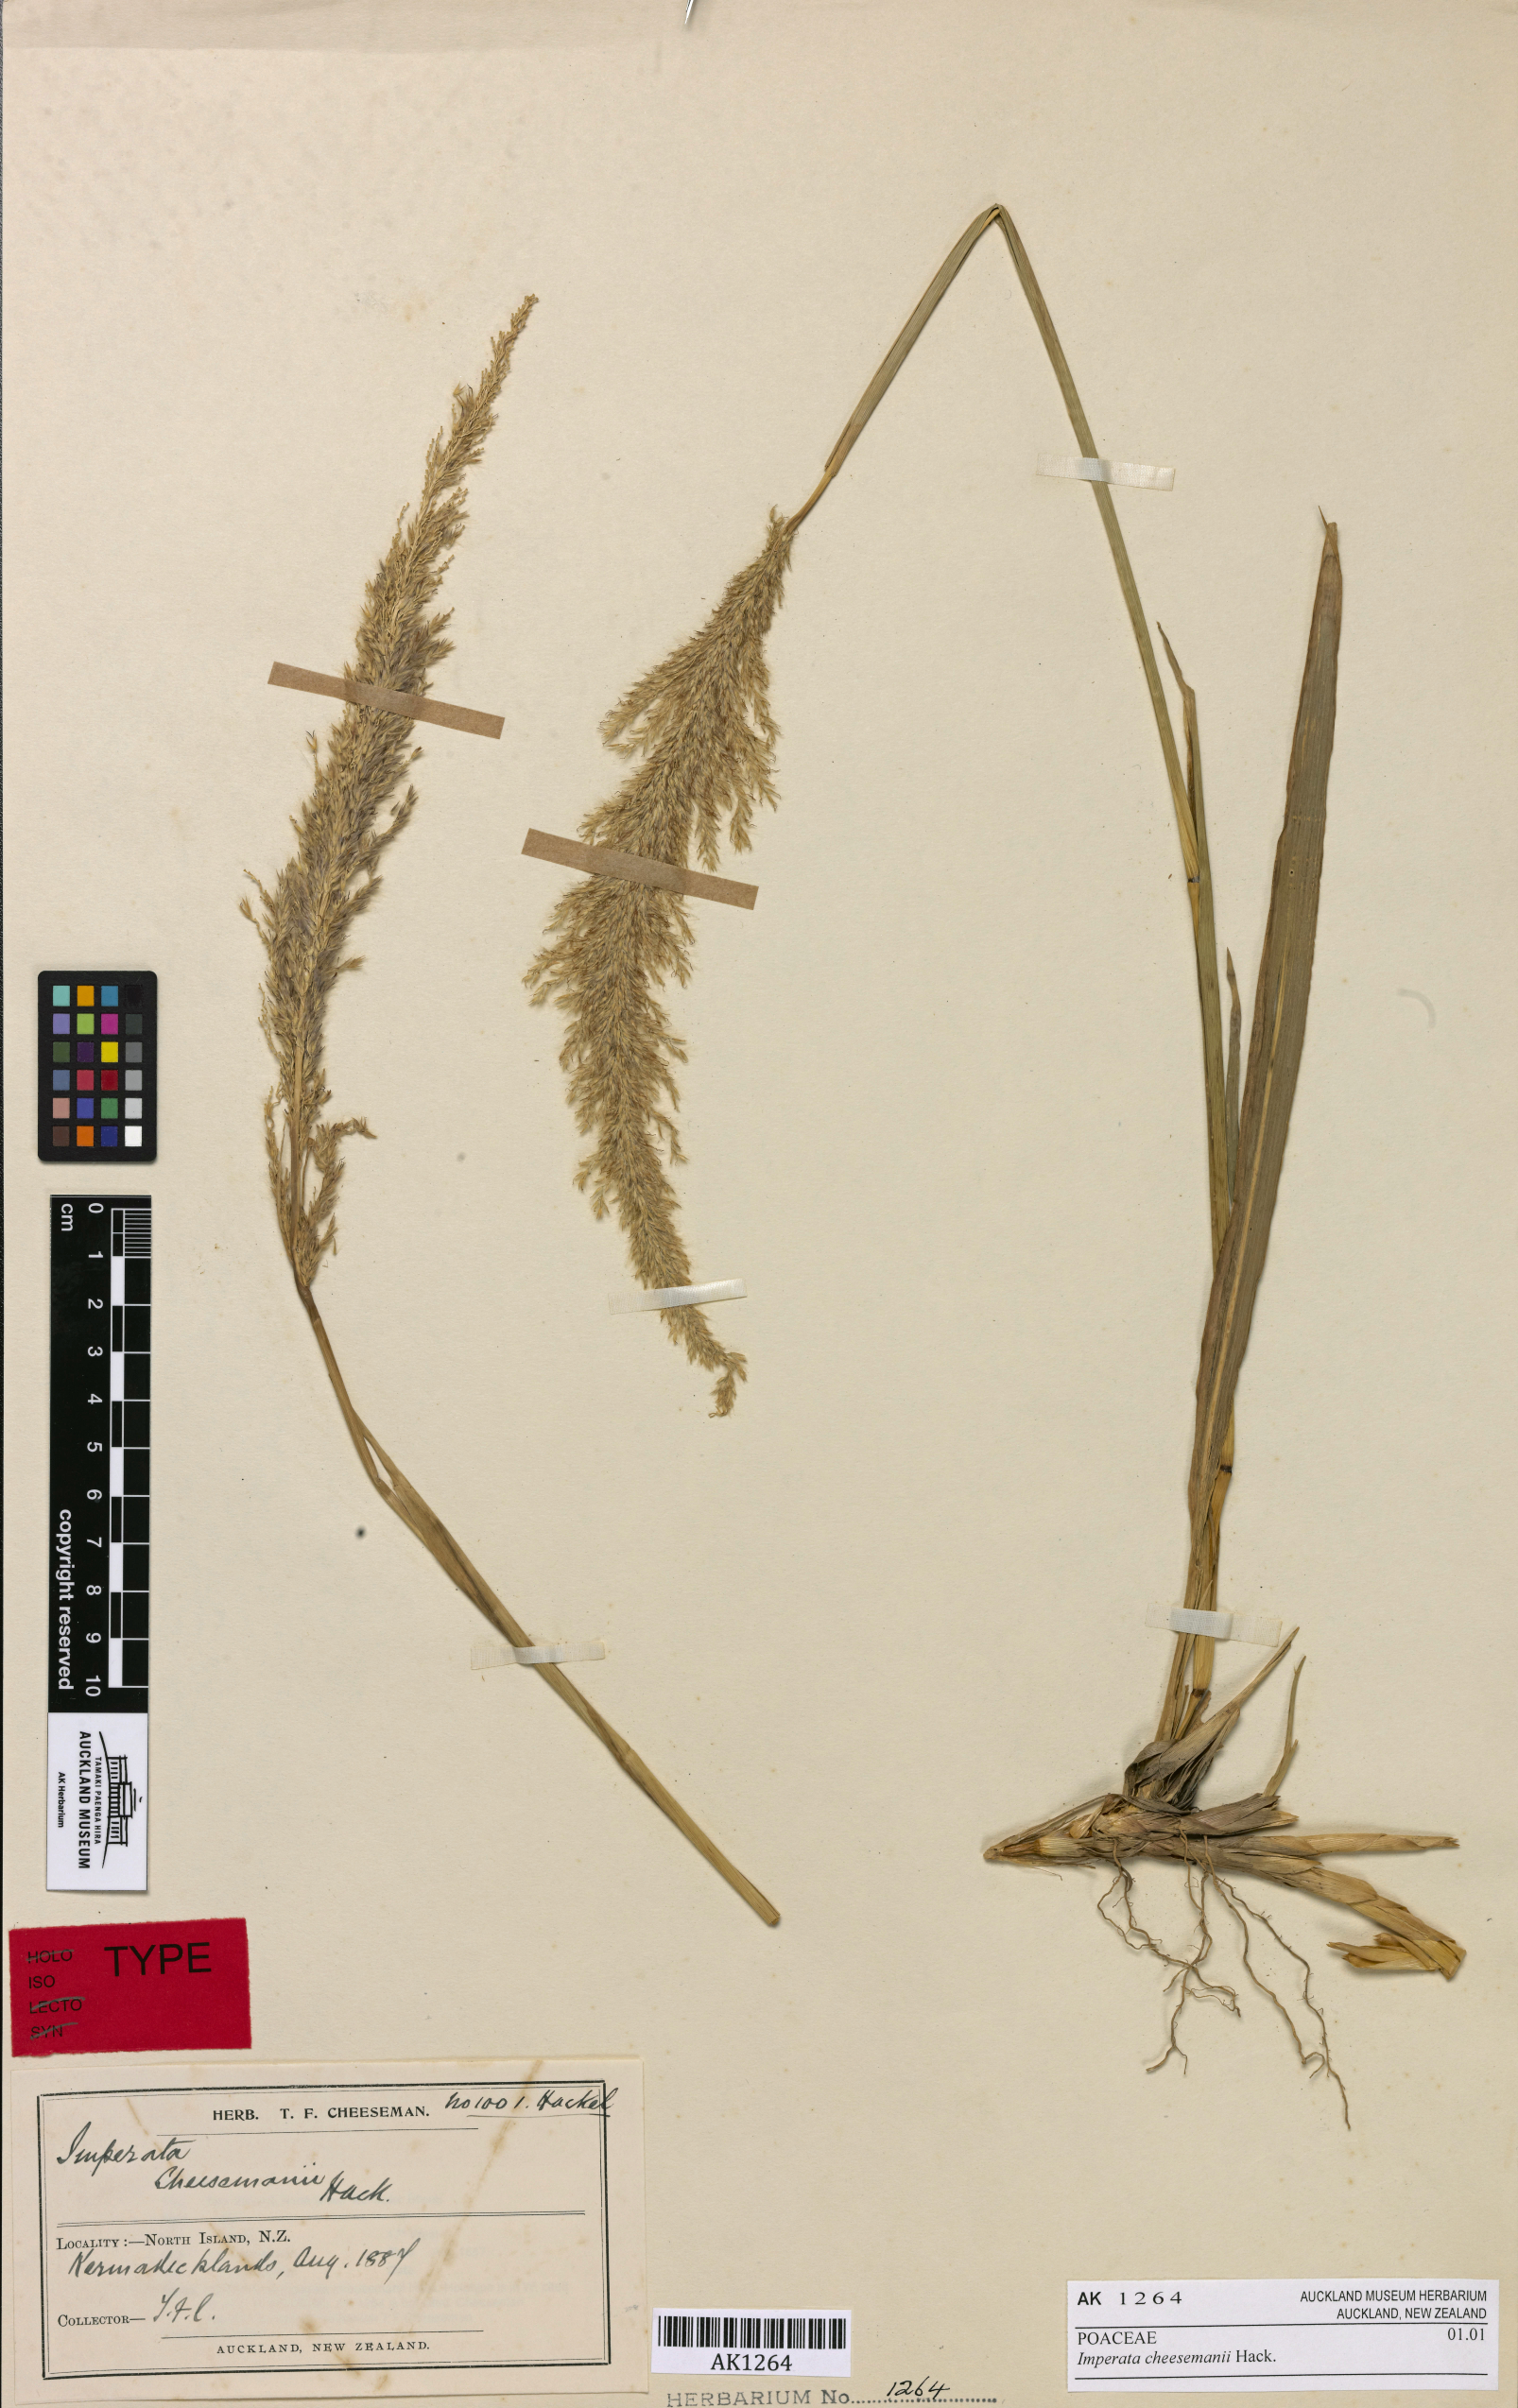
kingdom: Plantae
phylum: Tracheophyta
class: Liliopsida
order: Poales
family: Poaceae
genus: Imperata
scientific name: Imperata cheesemanii
